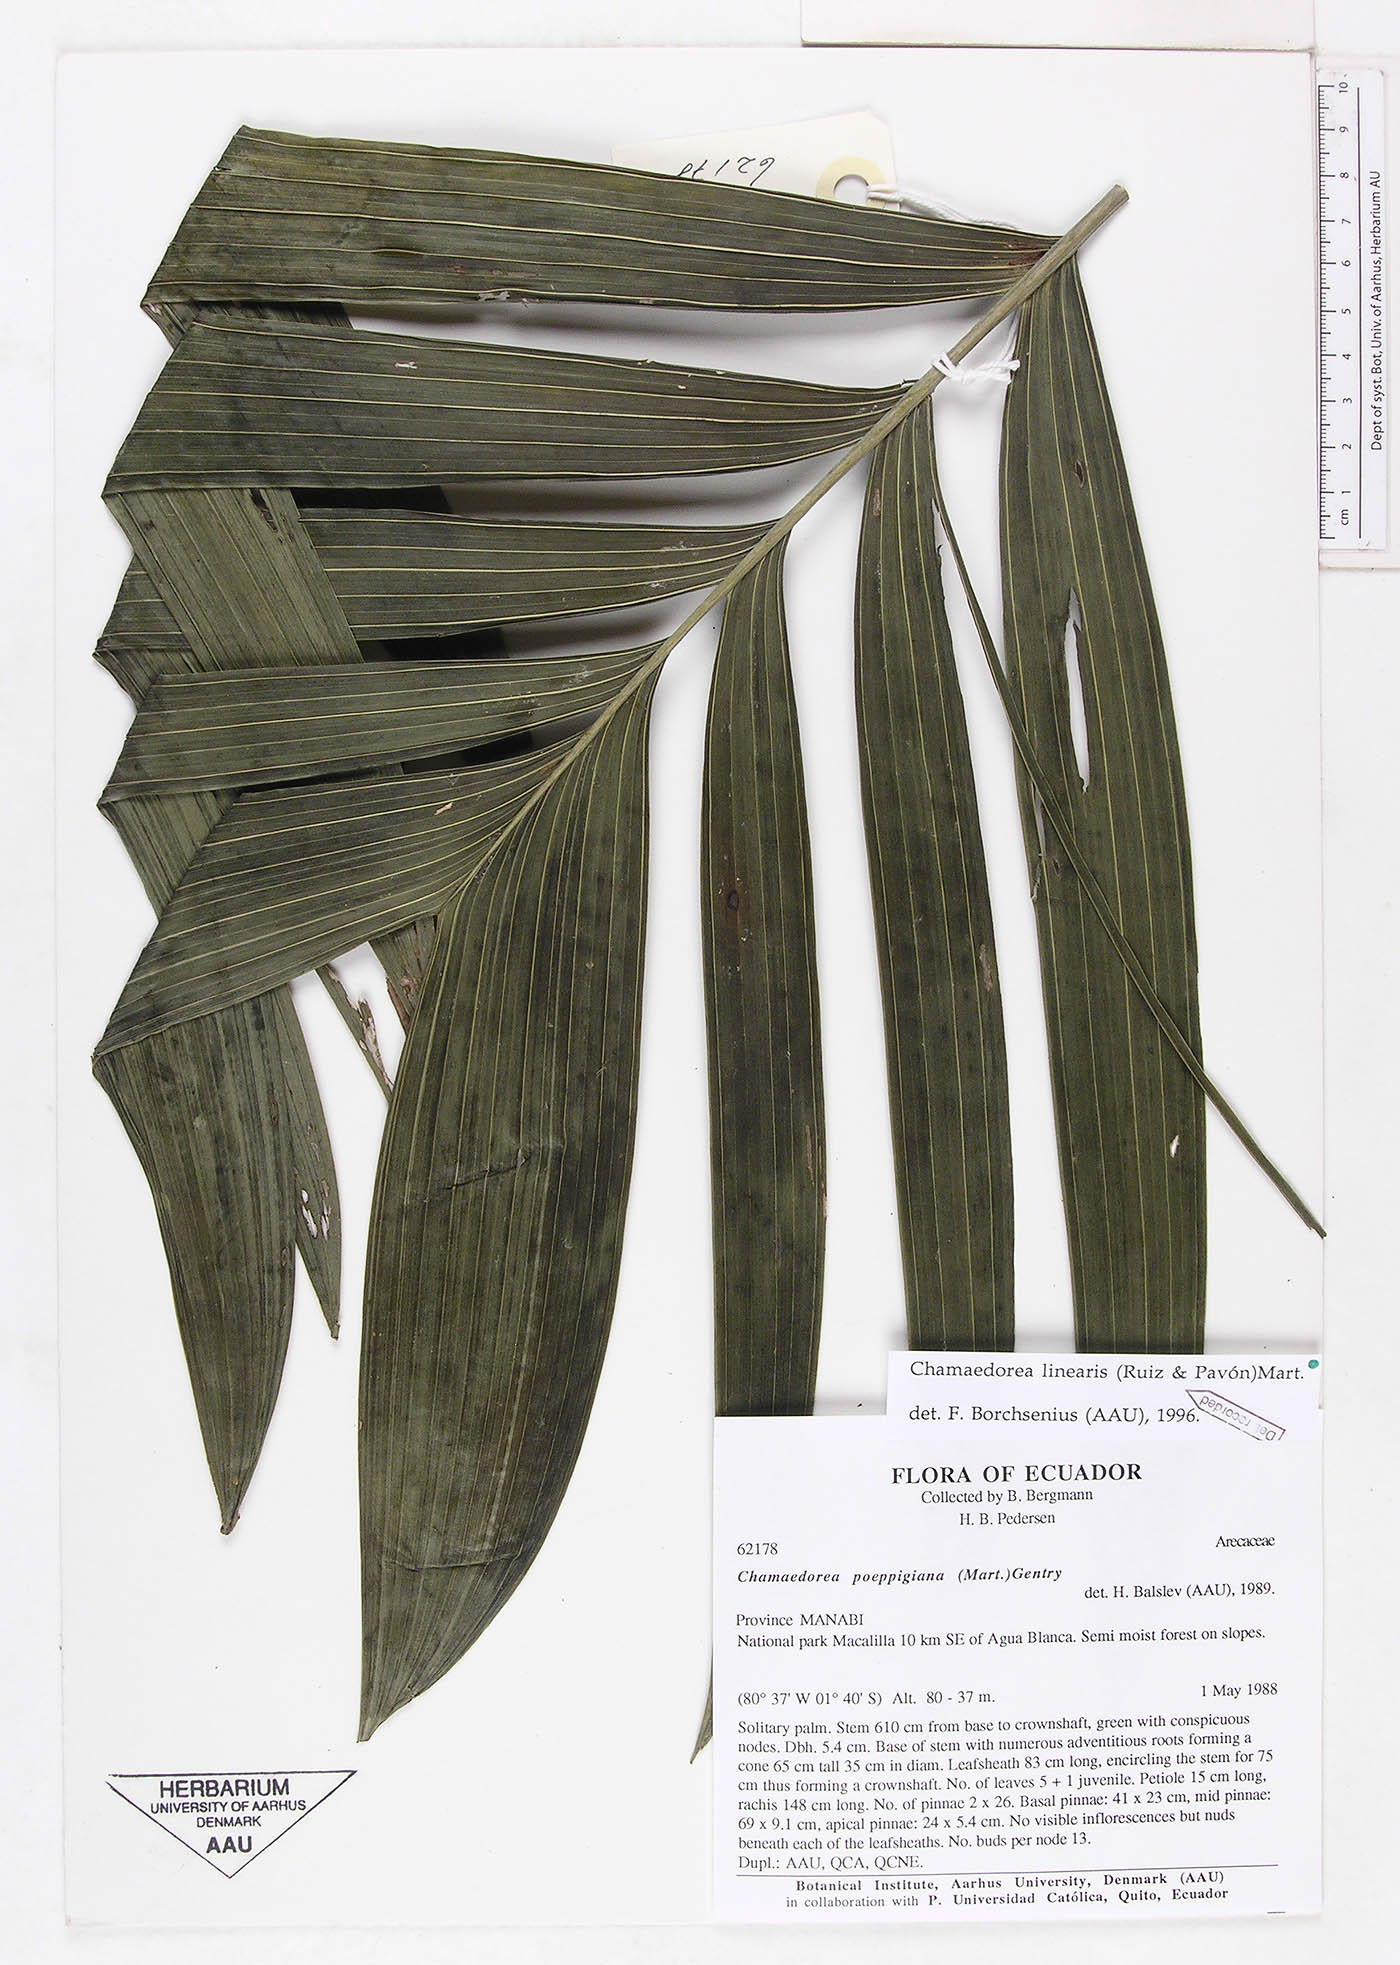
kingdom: Plantae
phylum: Tracheophyta
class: Liliopsida
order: Arecales
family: Arecaceae
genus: Chamaedorea
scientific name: Chamaedorea linearis
